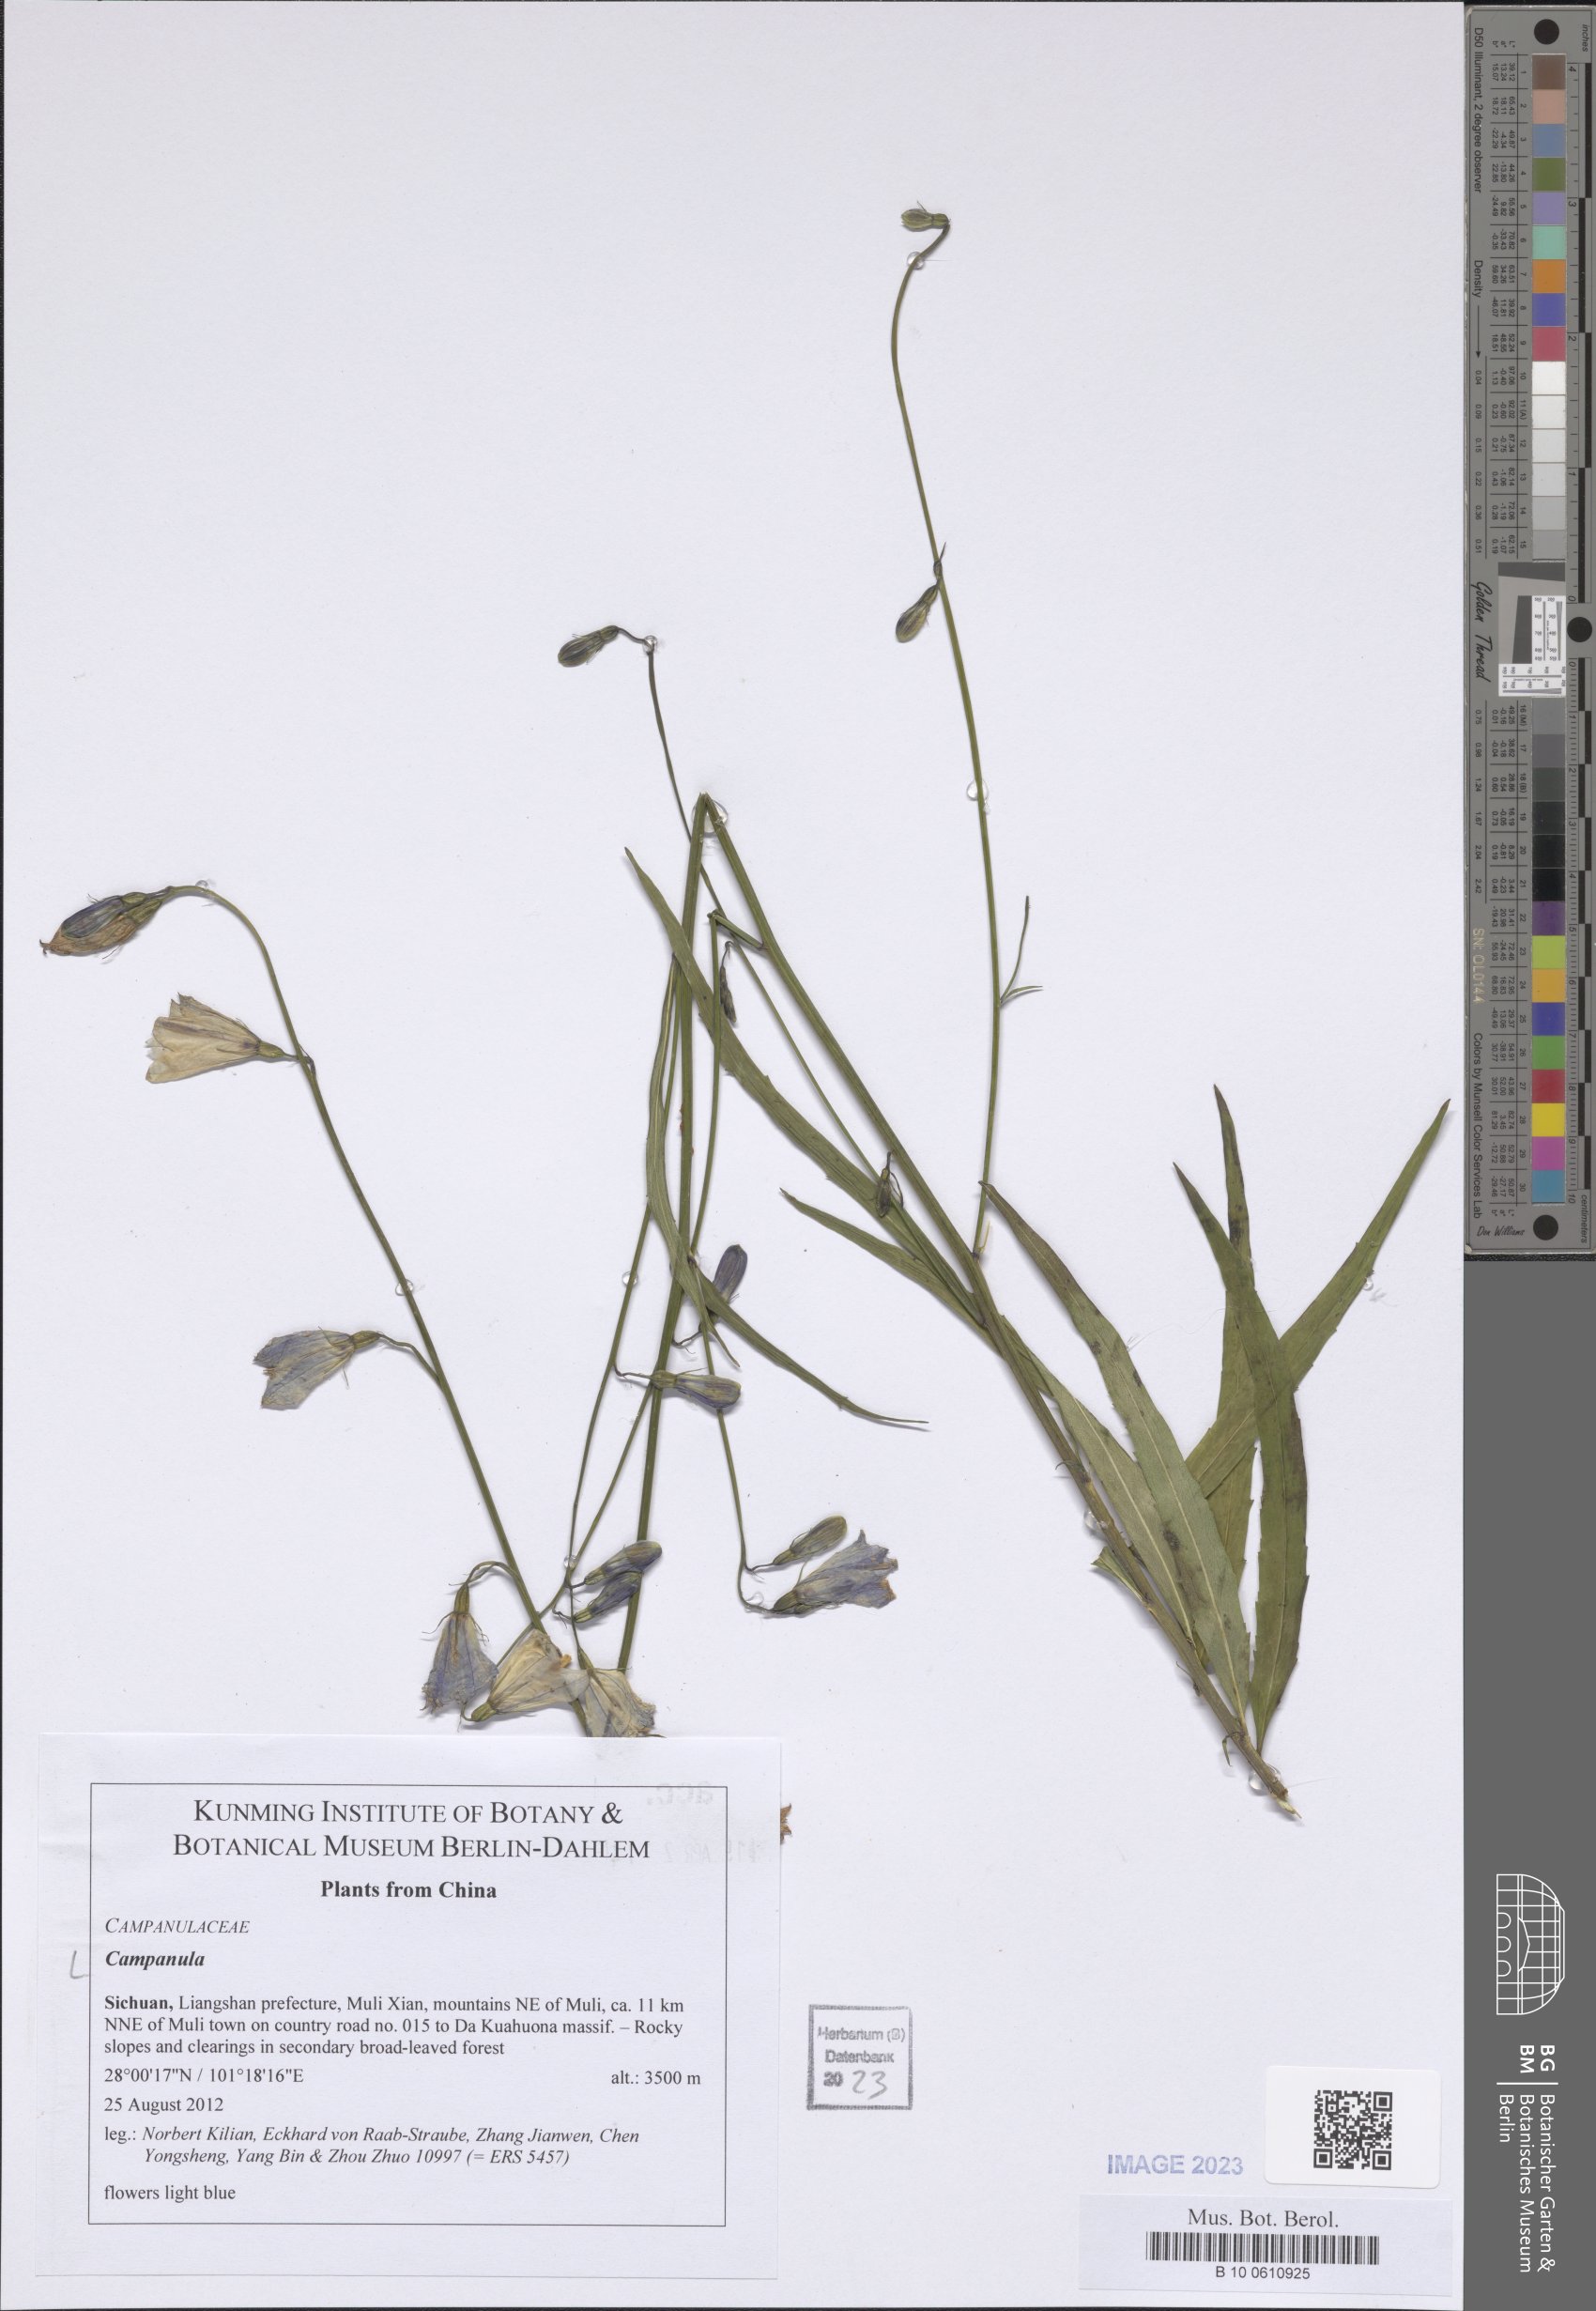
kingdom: Plantae
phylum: Tracheophyta
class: Magnoliopsida
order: Asterales
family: Campanulaceae
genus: Campanula
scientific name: Campanula
